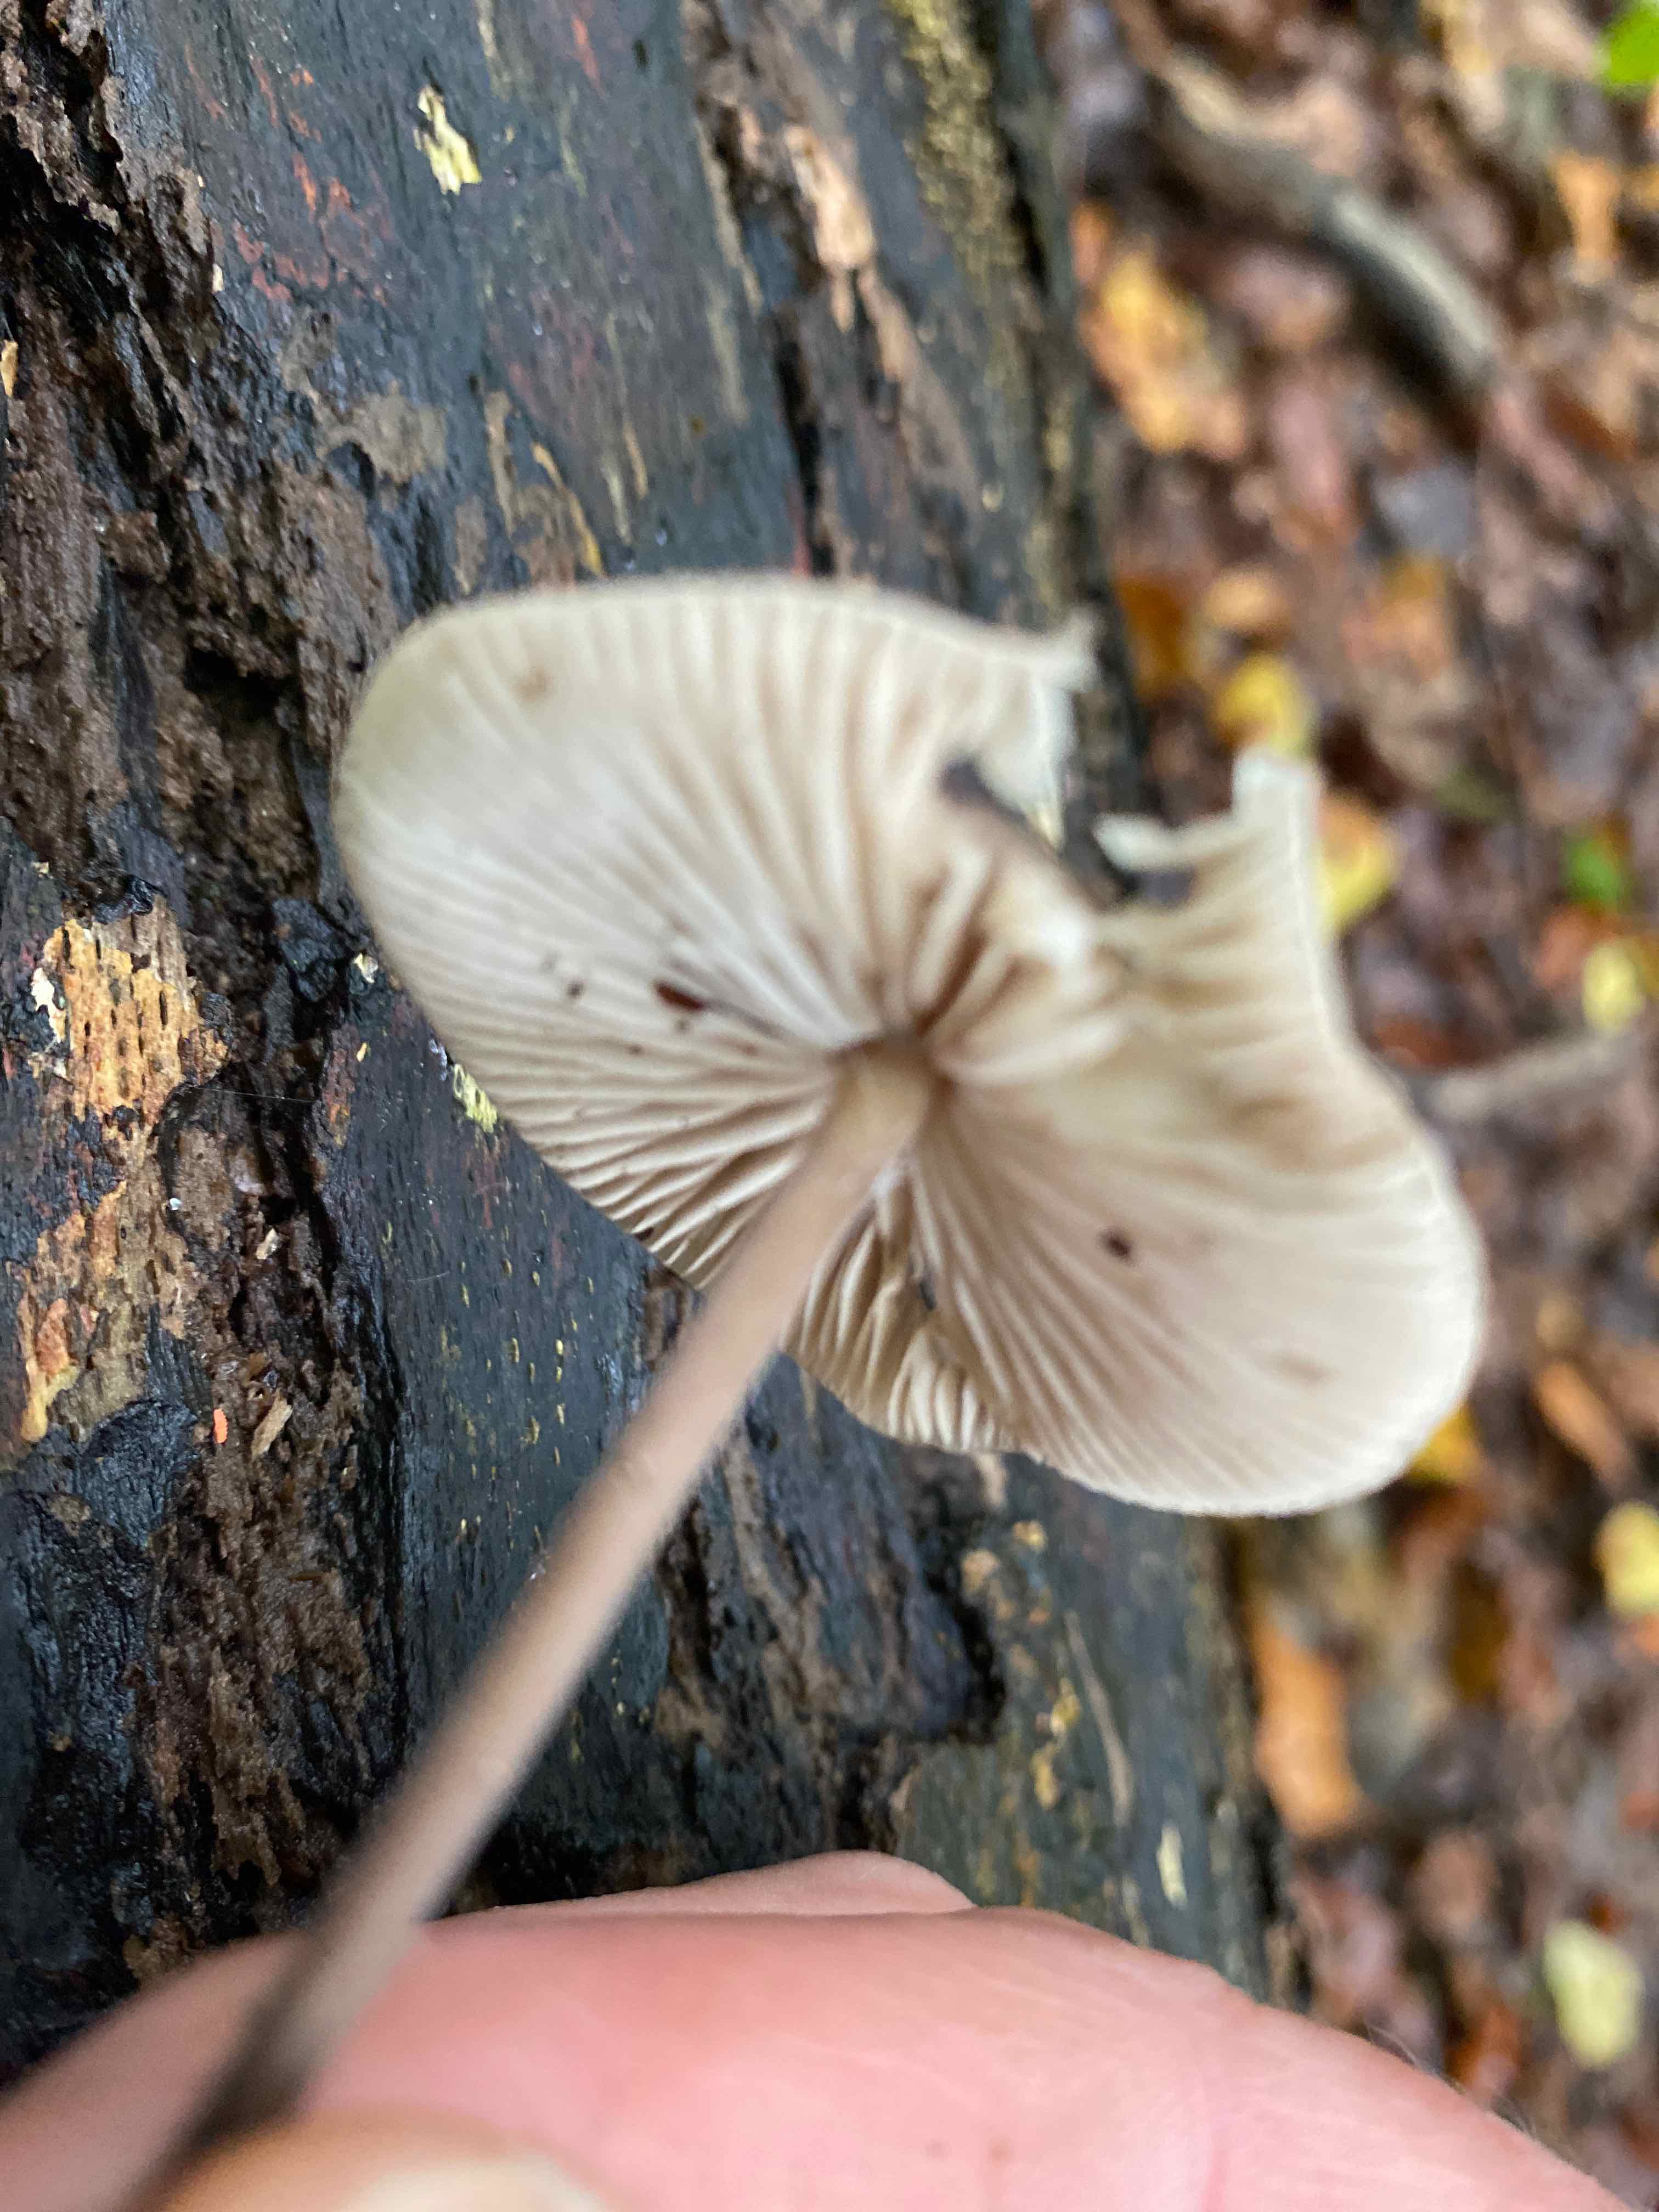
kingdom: Fungi
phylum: Basidiomycota
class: Agaricomycetes
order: Agaricales
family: Omphalotaceae
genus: Mycetinis
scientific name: Mycetinis alliaceus
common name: stor løghat
